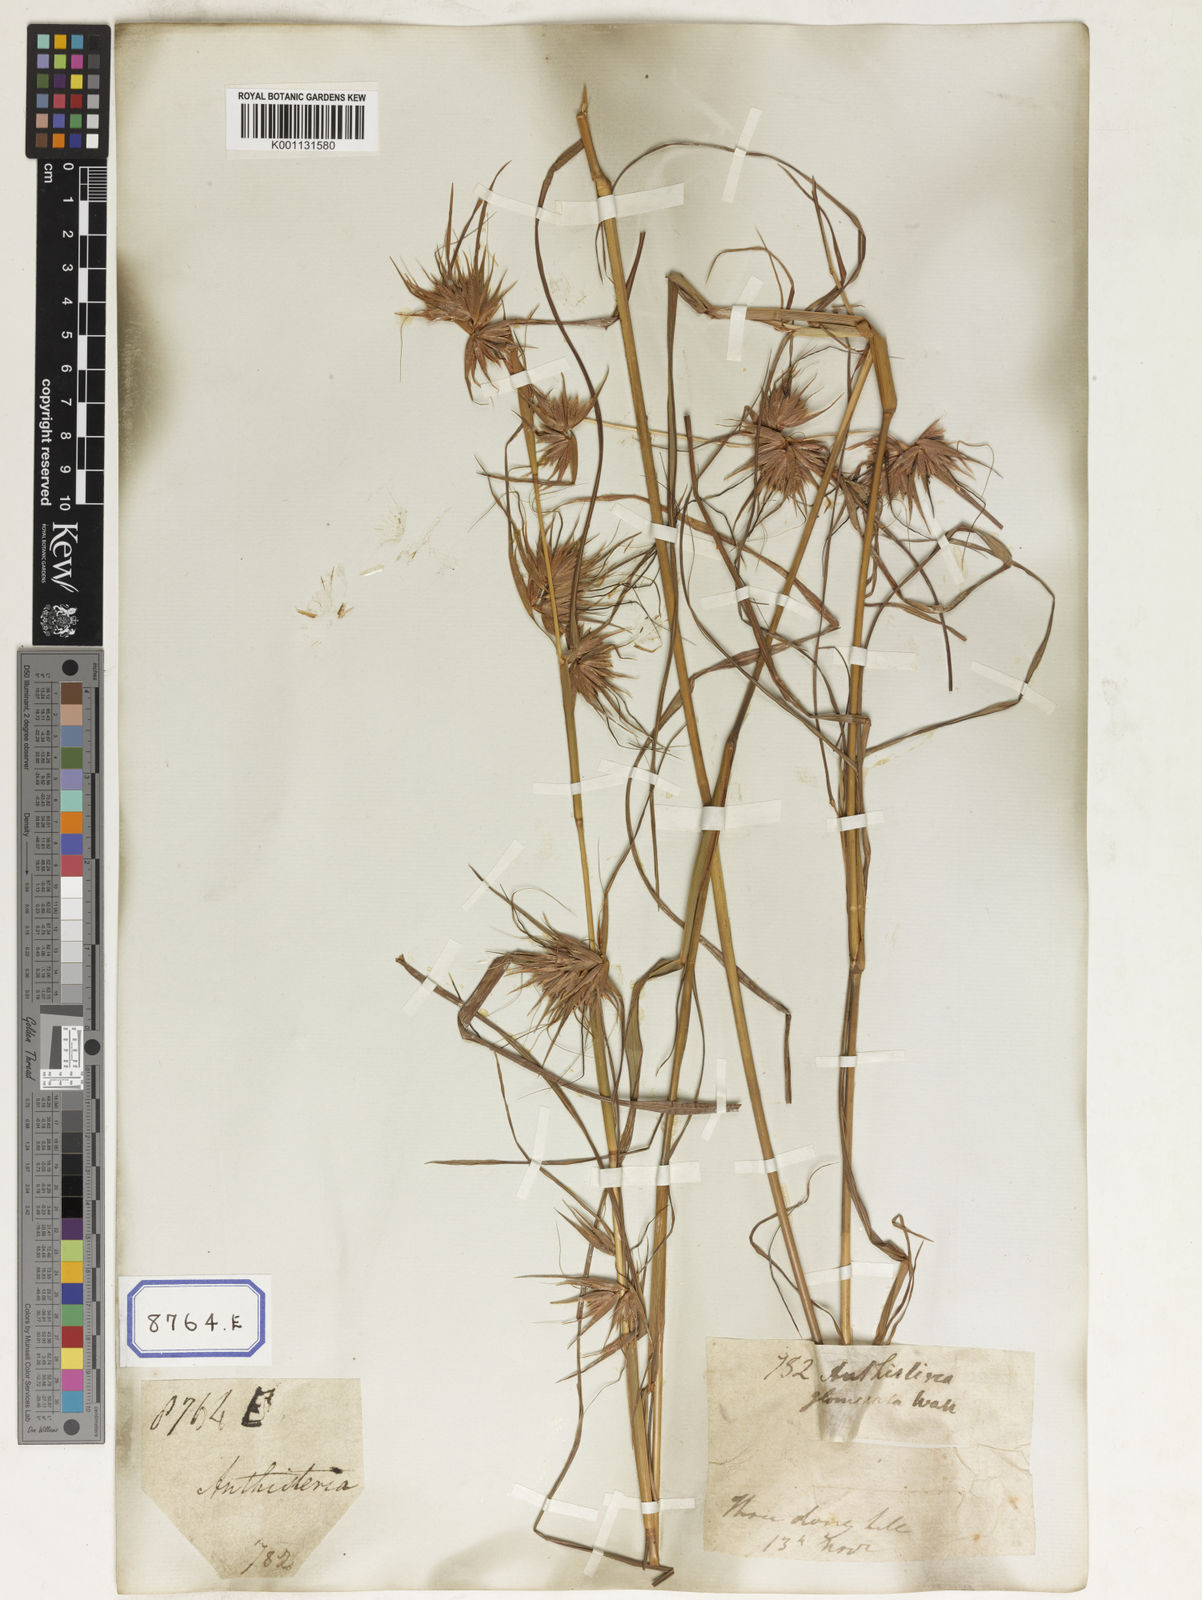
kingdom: Plantae
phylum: Tracheophyta
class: Liliopsida
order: Poales
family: Poaceae
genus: Themeda
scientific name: Themeda
